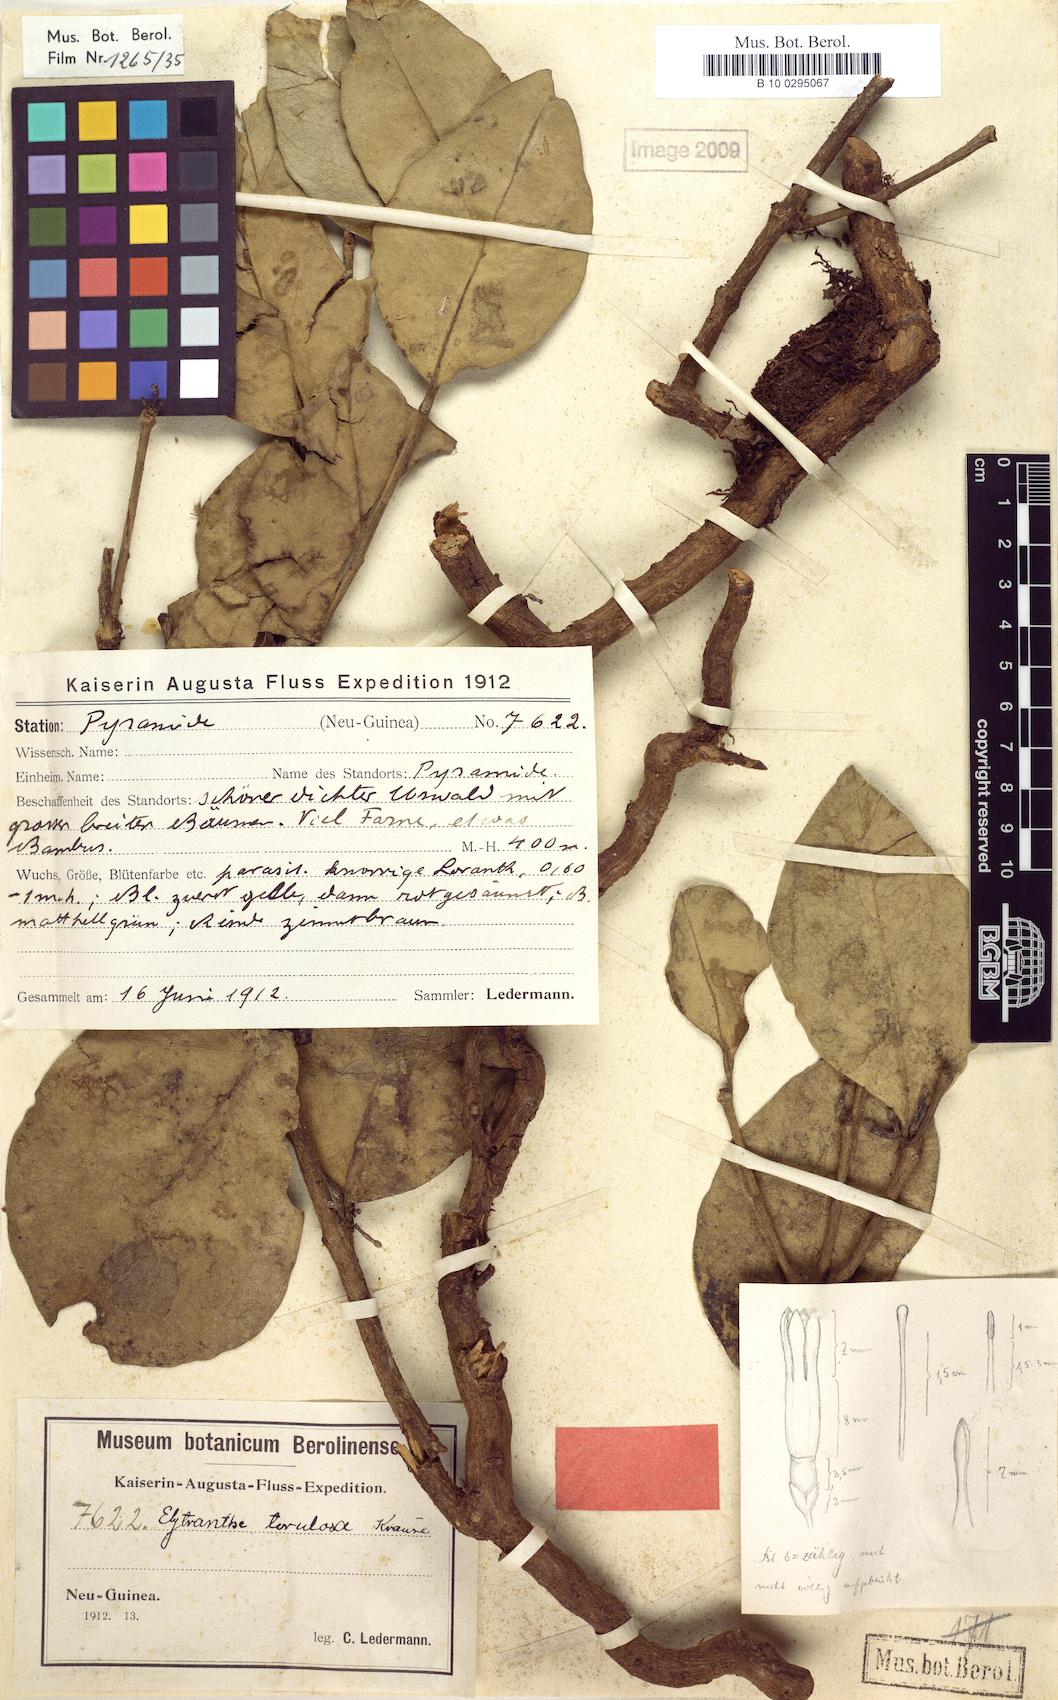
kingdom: Plantae
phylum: Tracheophyta
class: Magnoliopsida
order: Santalales
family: Loranthaceae
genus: Macrosolen
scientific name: Macrosolen cochinchinensis
